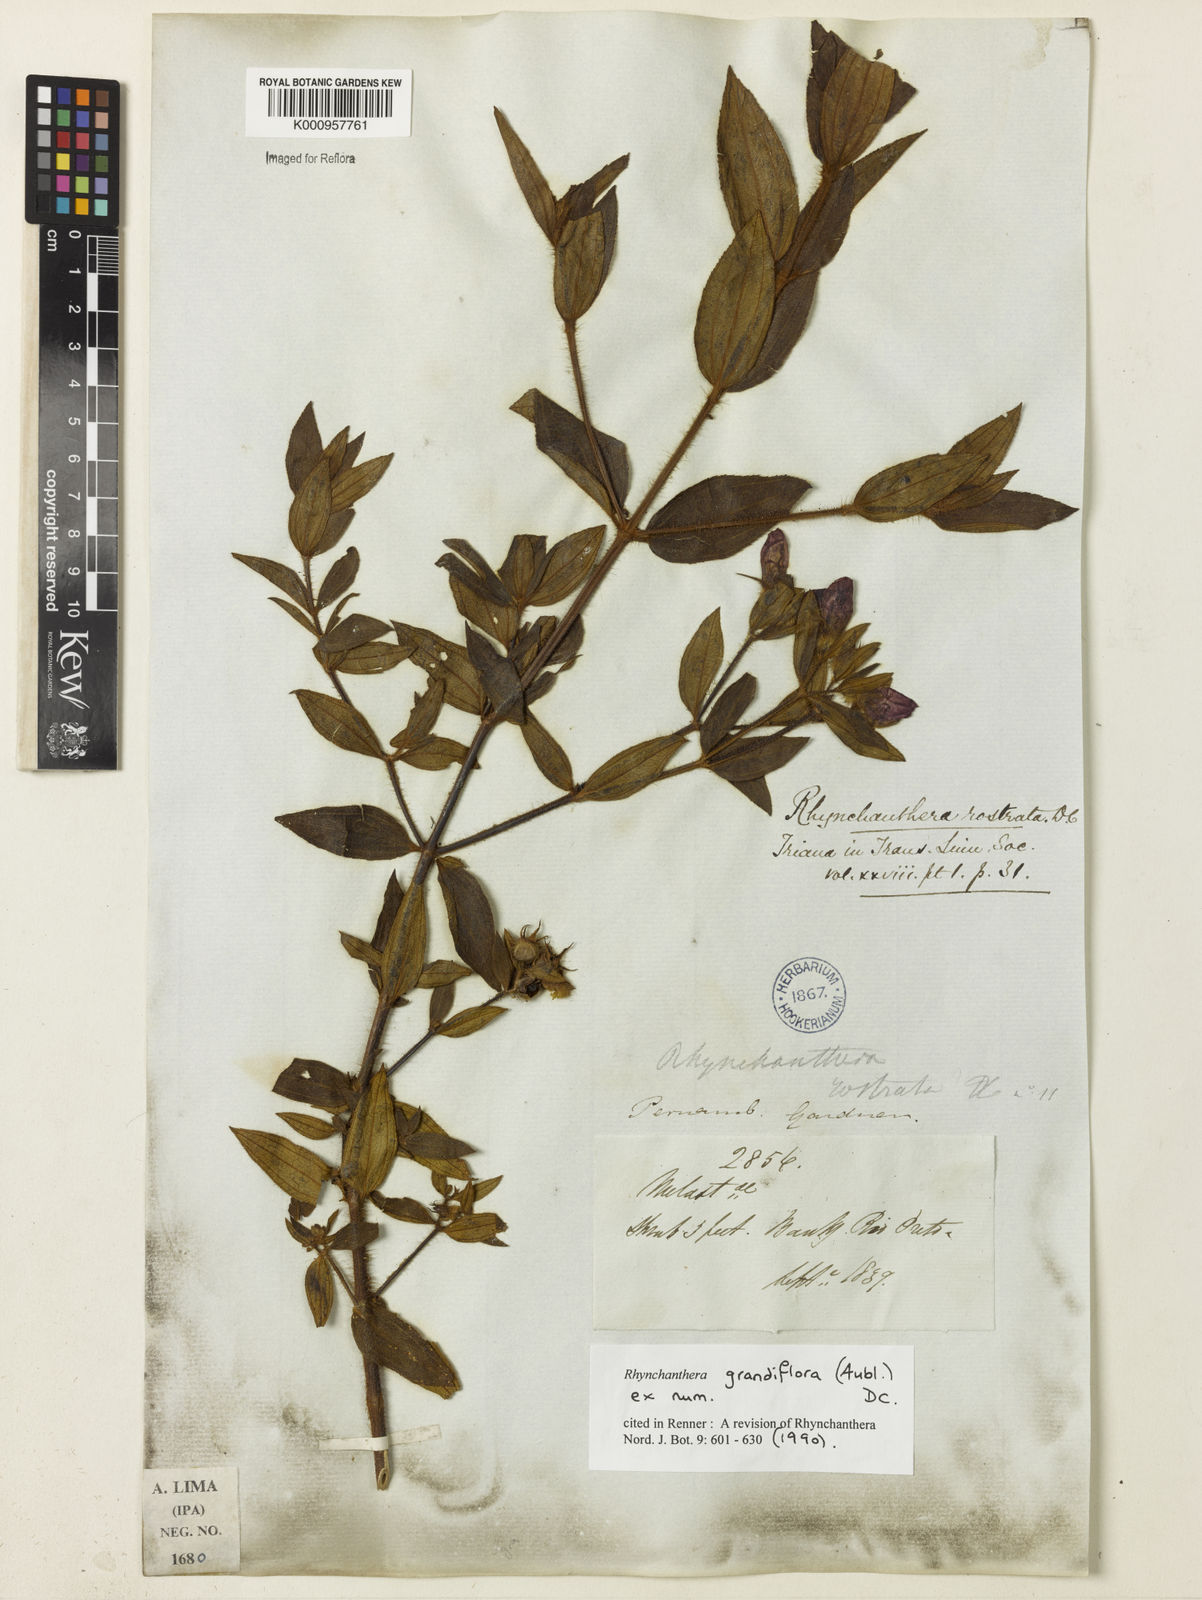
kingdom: Plantae
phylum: Tracheophyta
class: Magnoliopsida
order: Myrtales
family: Melastomataceae
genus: Rhynchanthera
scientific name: Rhynchanthera grandiflora
